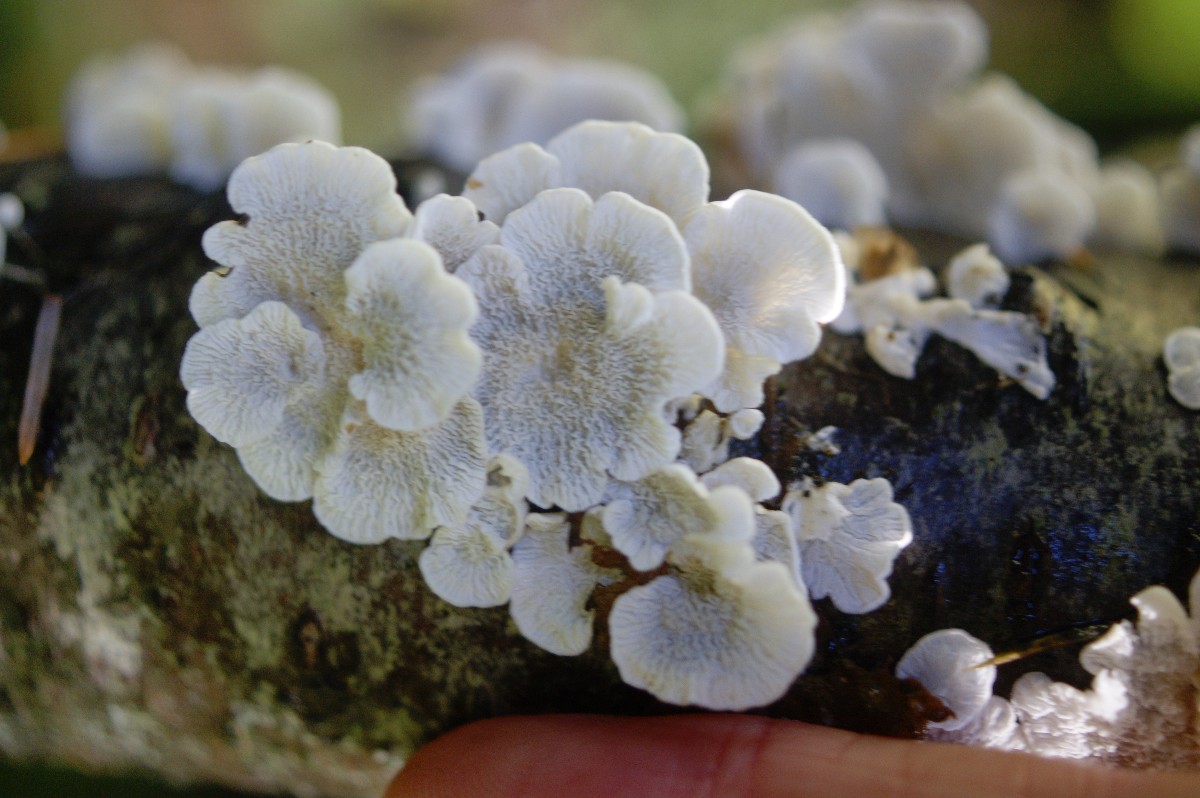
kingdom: Fungi
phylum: Basidiomycota
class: Agaricomycetes
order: Amylocorticiales
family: Amylocorticiaceae
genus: Plicaturopsis
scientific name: Plicaturopsis crispa
